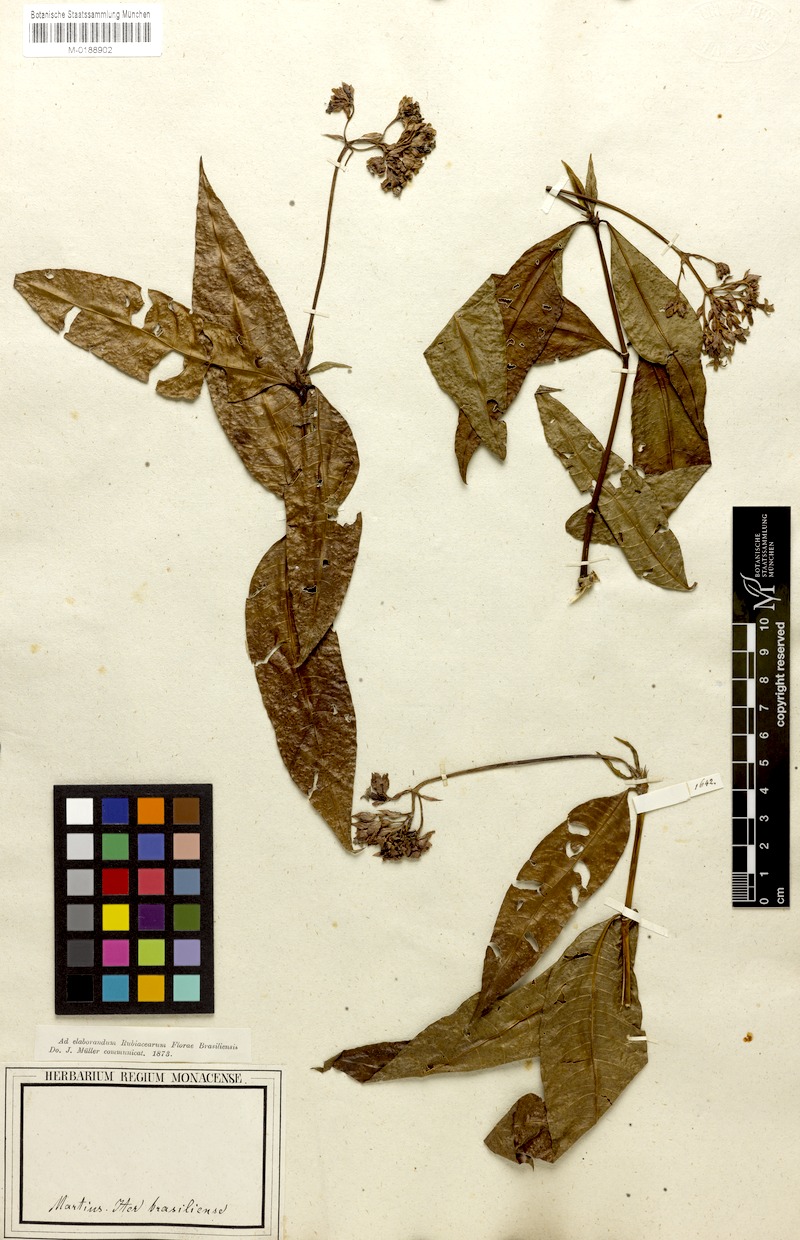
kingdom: Plantae
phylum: Tracheophyta
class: Magnoliopsida
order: Gentianales
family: Rubiaceae
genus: Palicourea
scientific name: Palicourea maguireorum
